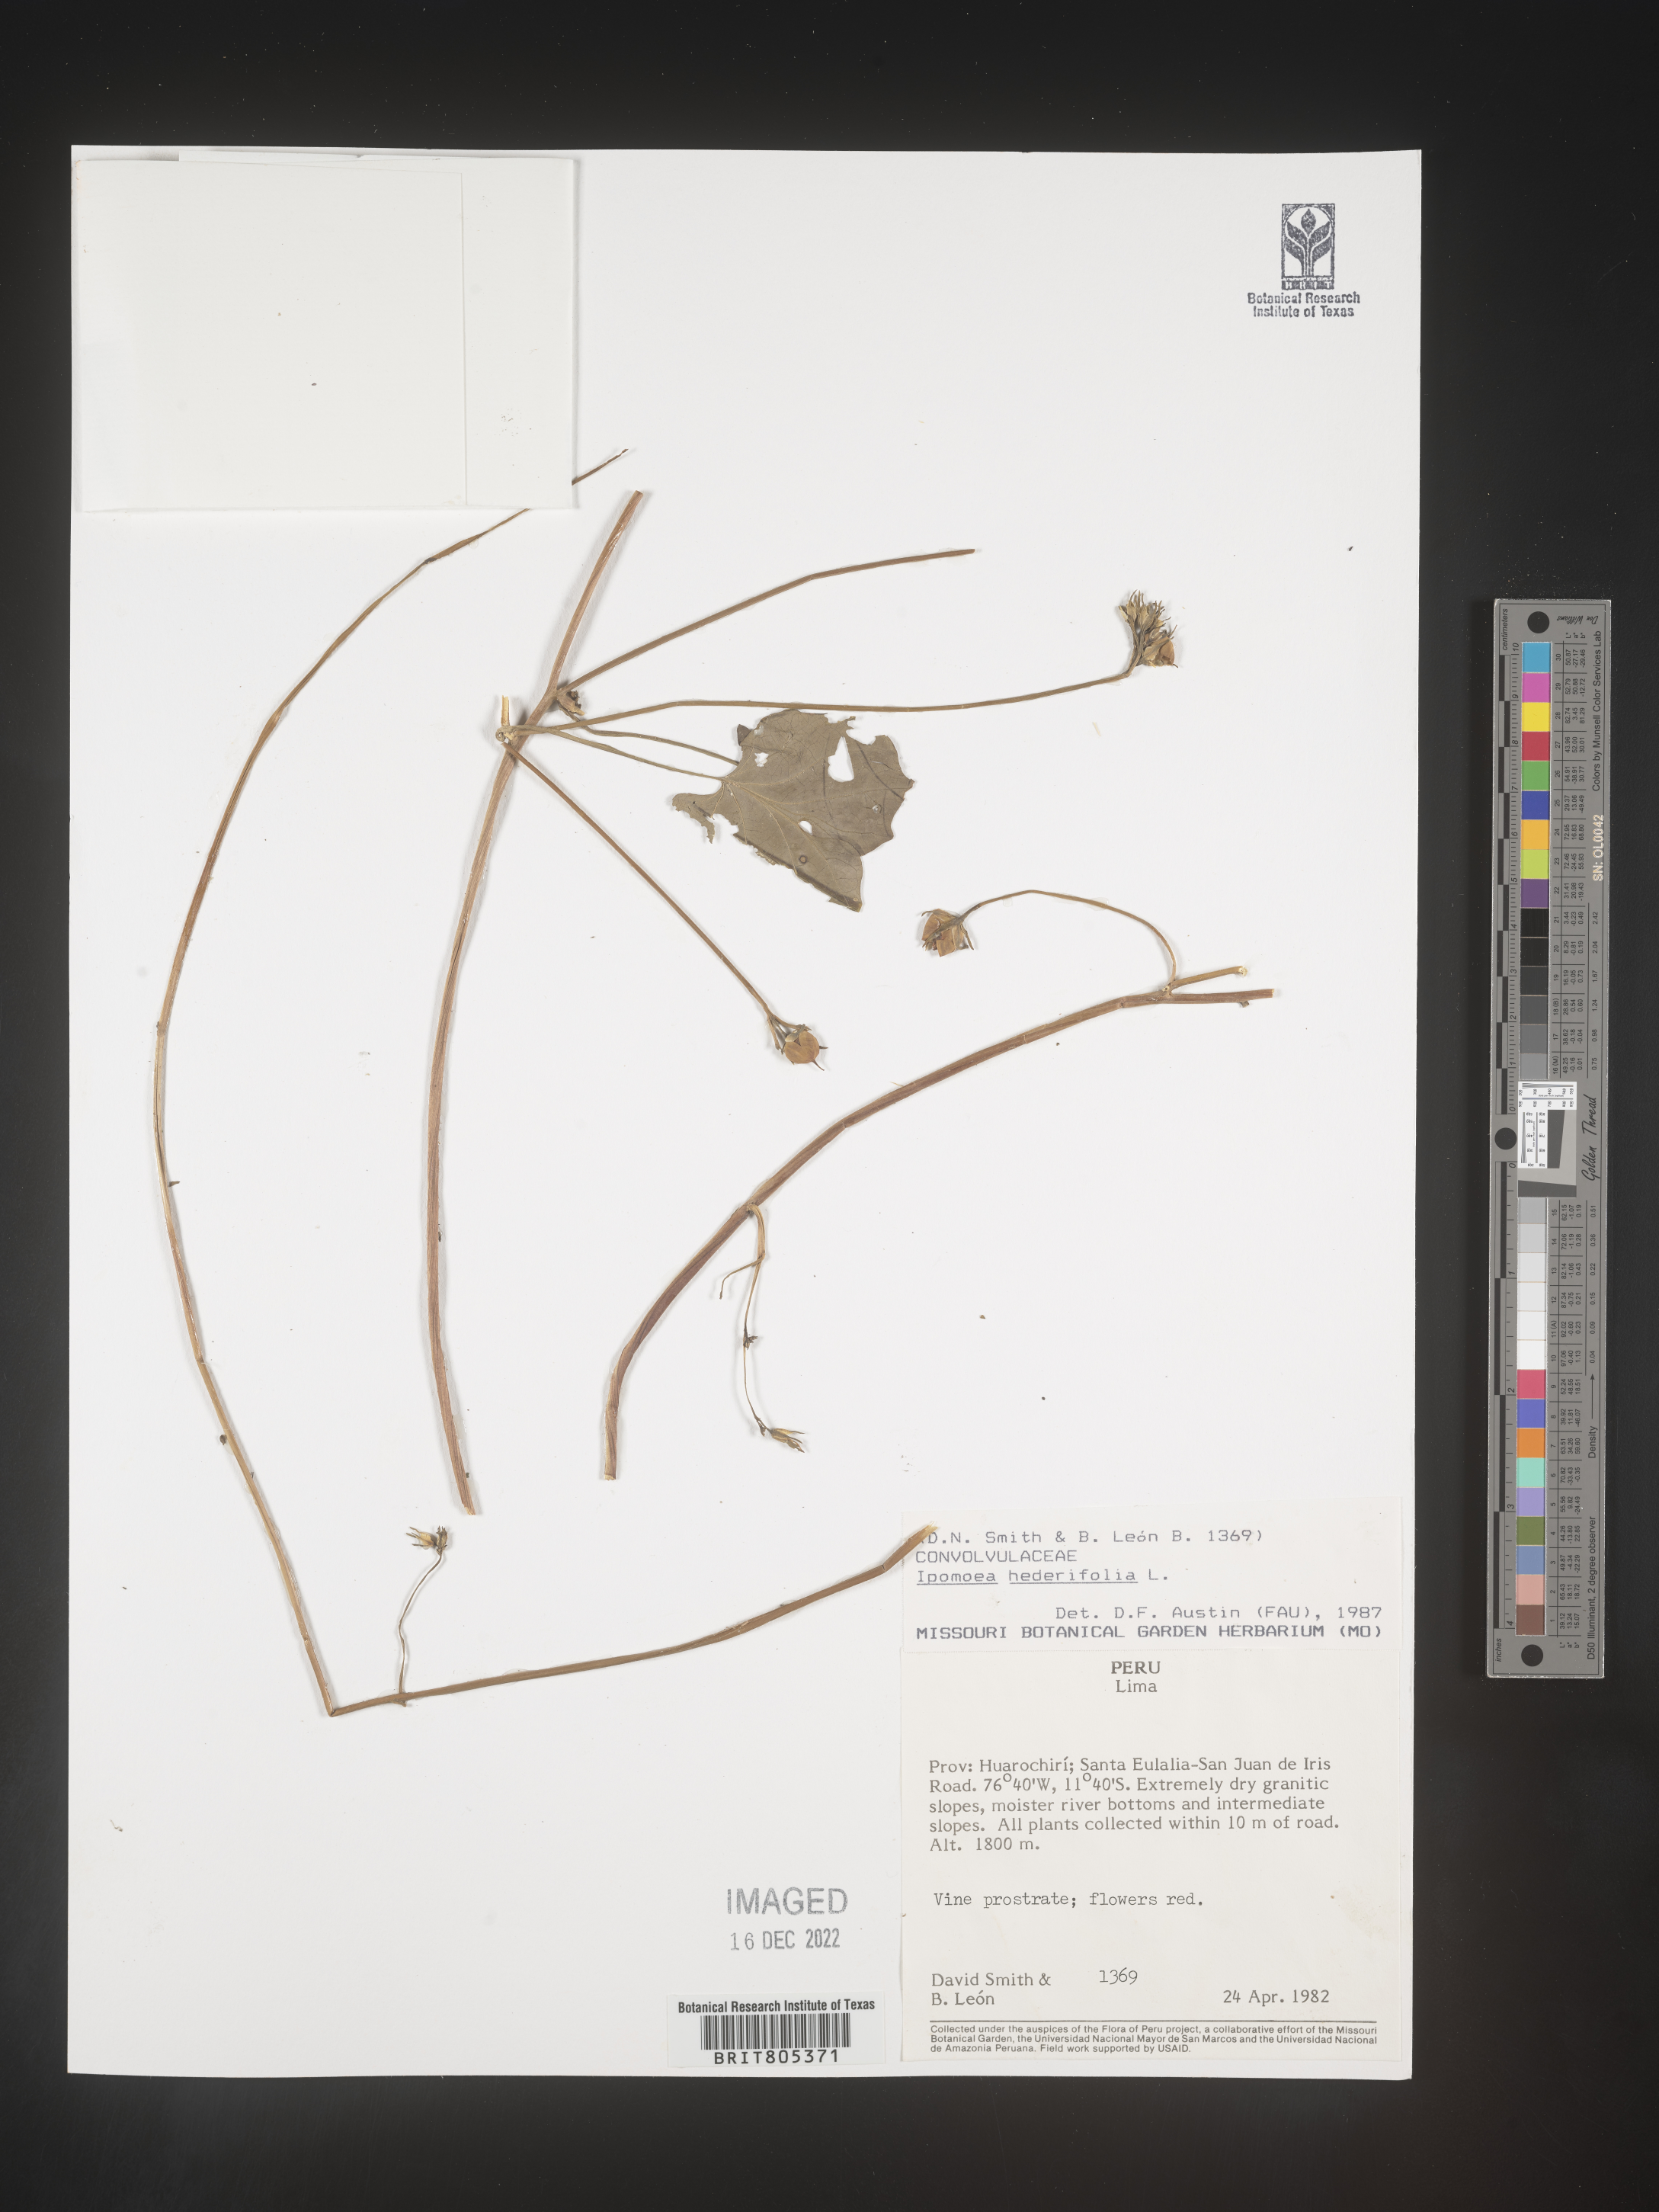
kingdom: Plantae
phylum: Tracheophyta
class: Magnoliopsida
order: Solanales
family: Convolvulaceae
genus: Ipomoea
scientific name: Ipomoea
